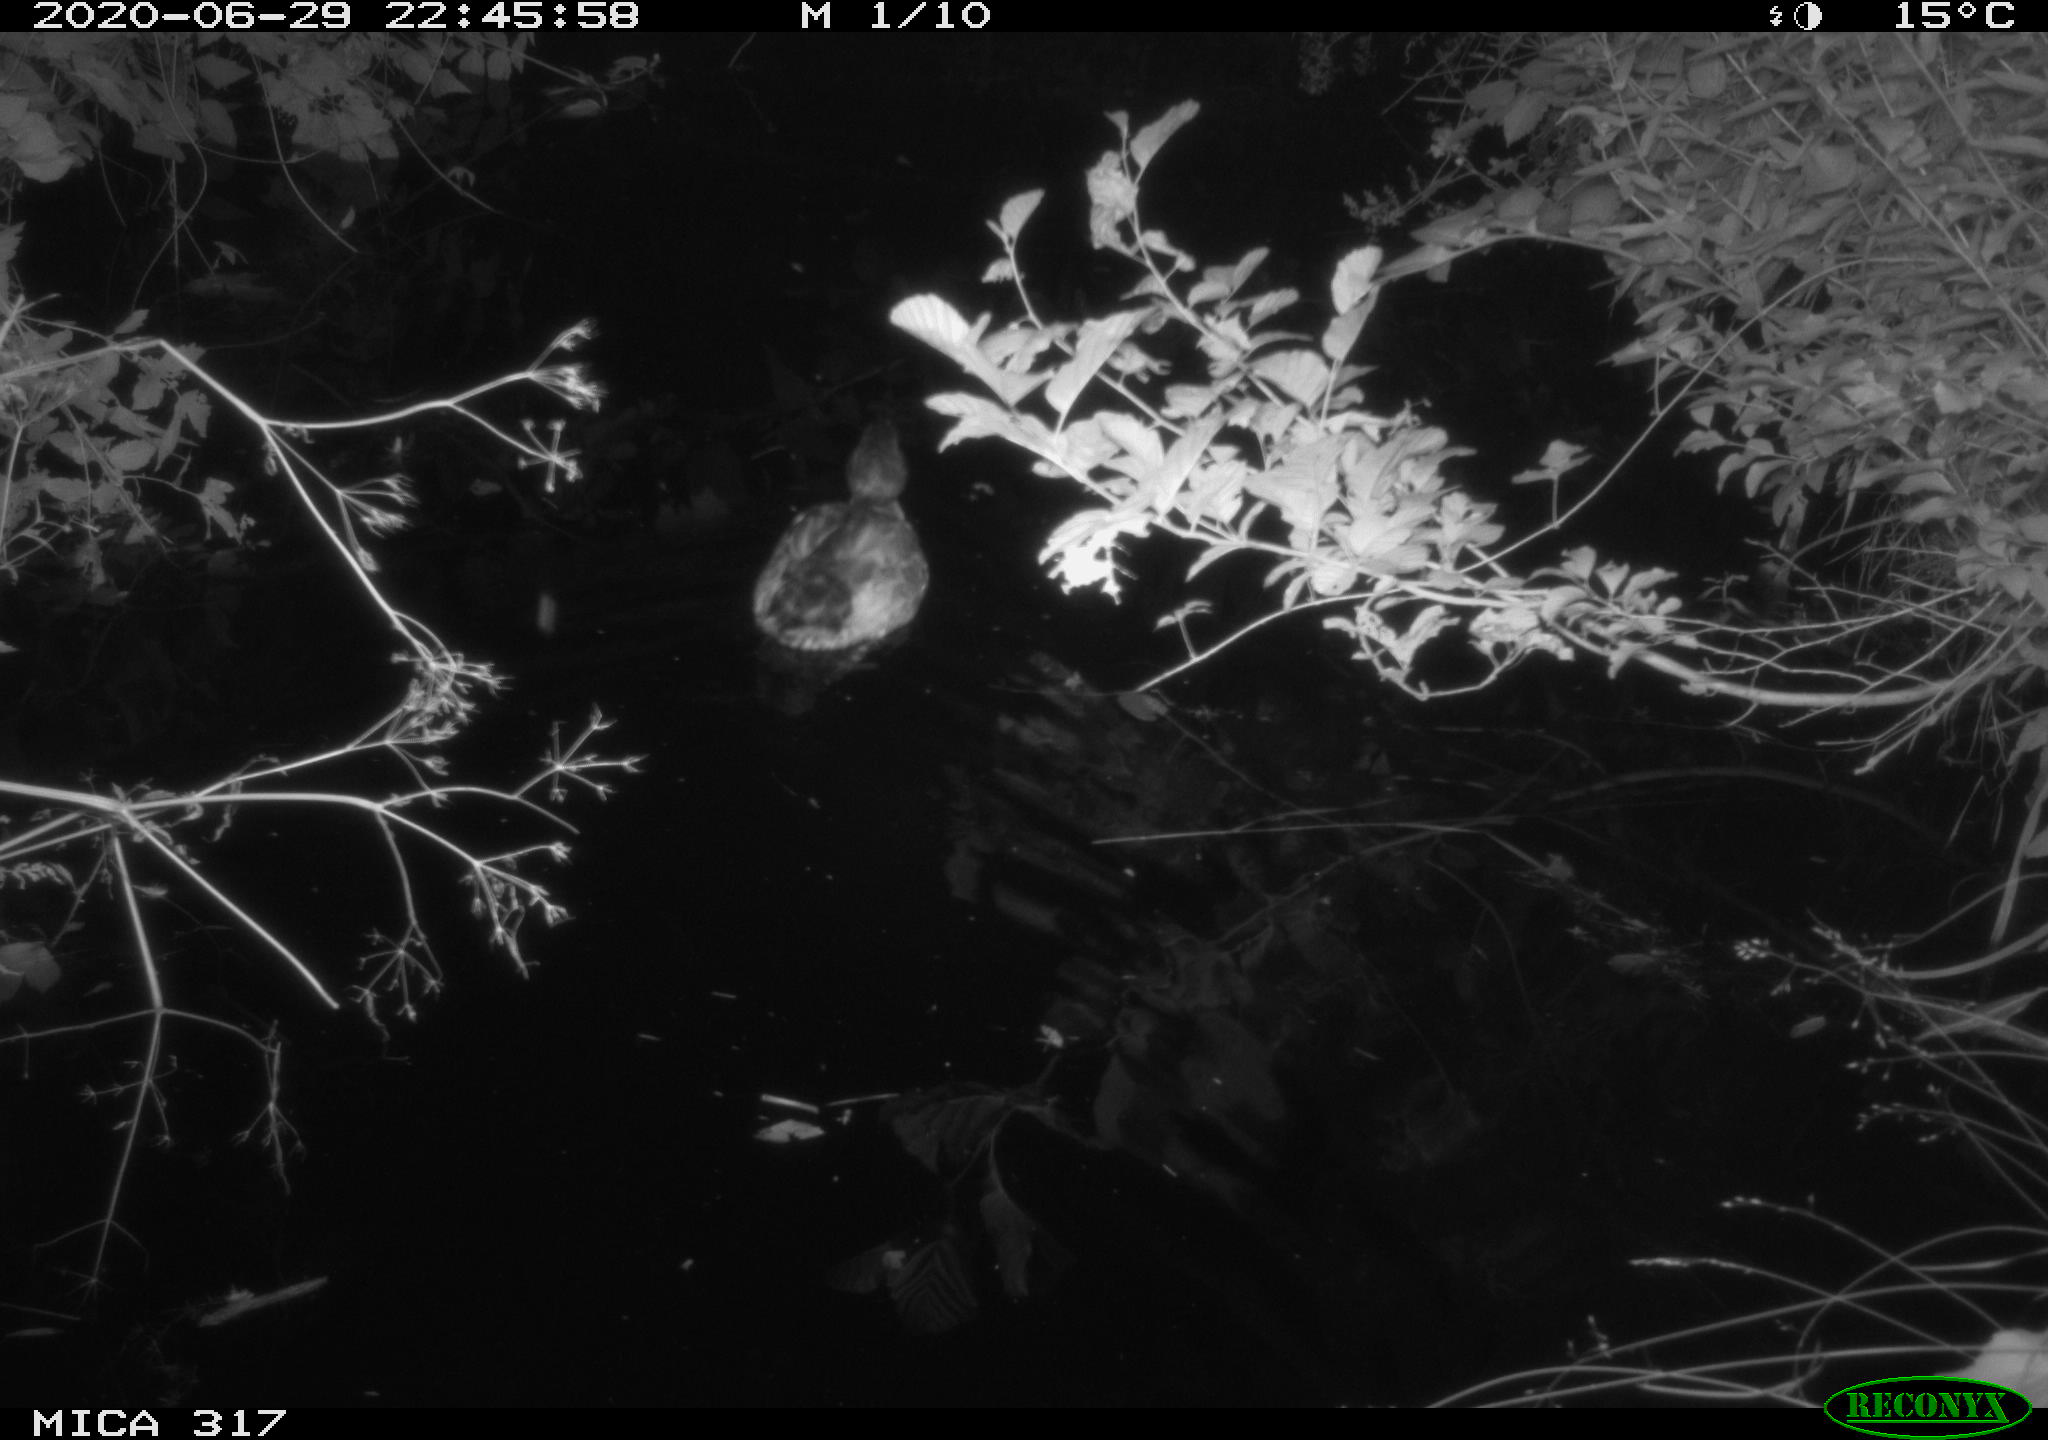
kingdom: Animalia
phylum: Chordata
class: Aves
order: Anseriformes
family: Anatidae
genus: Anas
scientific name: Anas platyrhynchos
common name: Mallard
